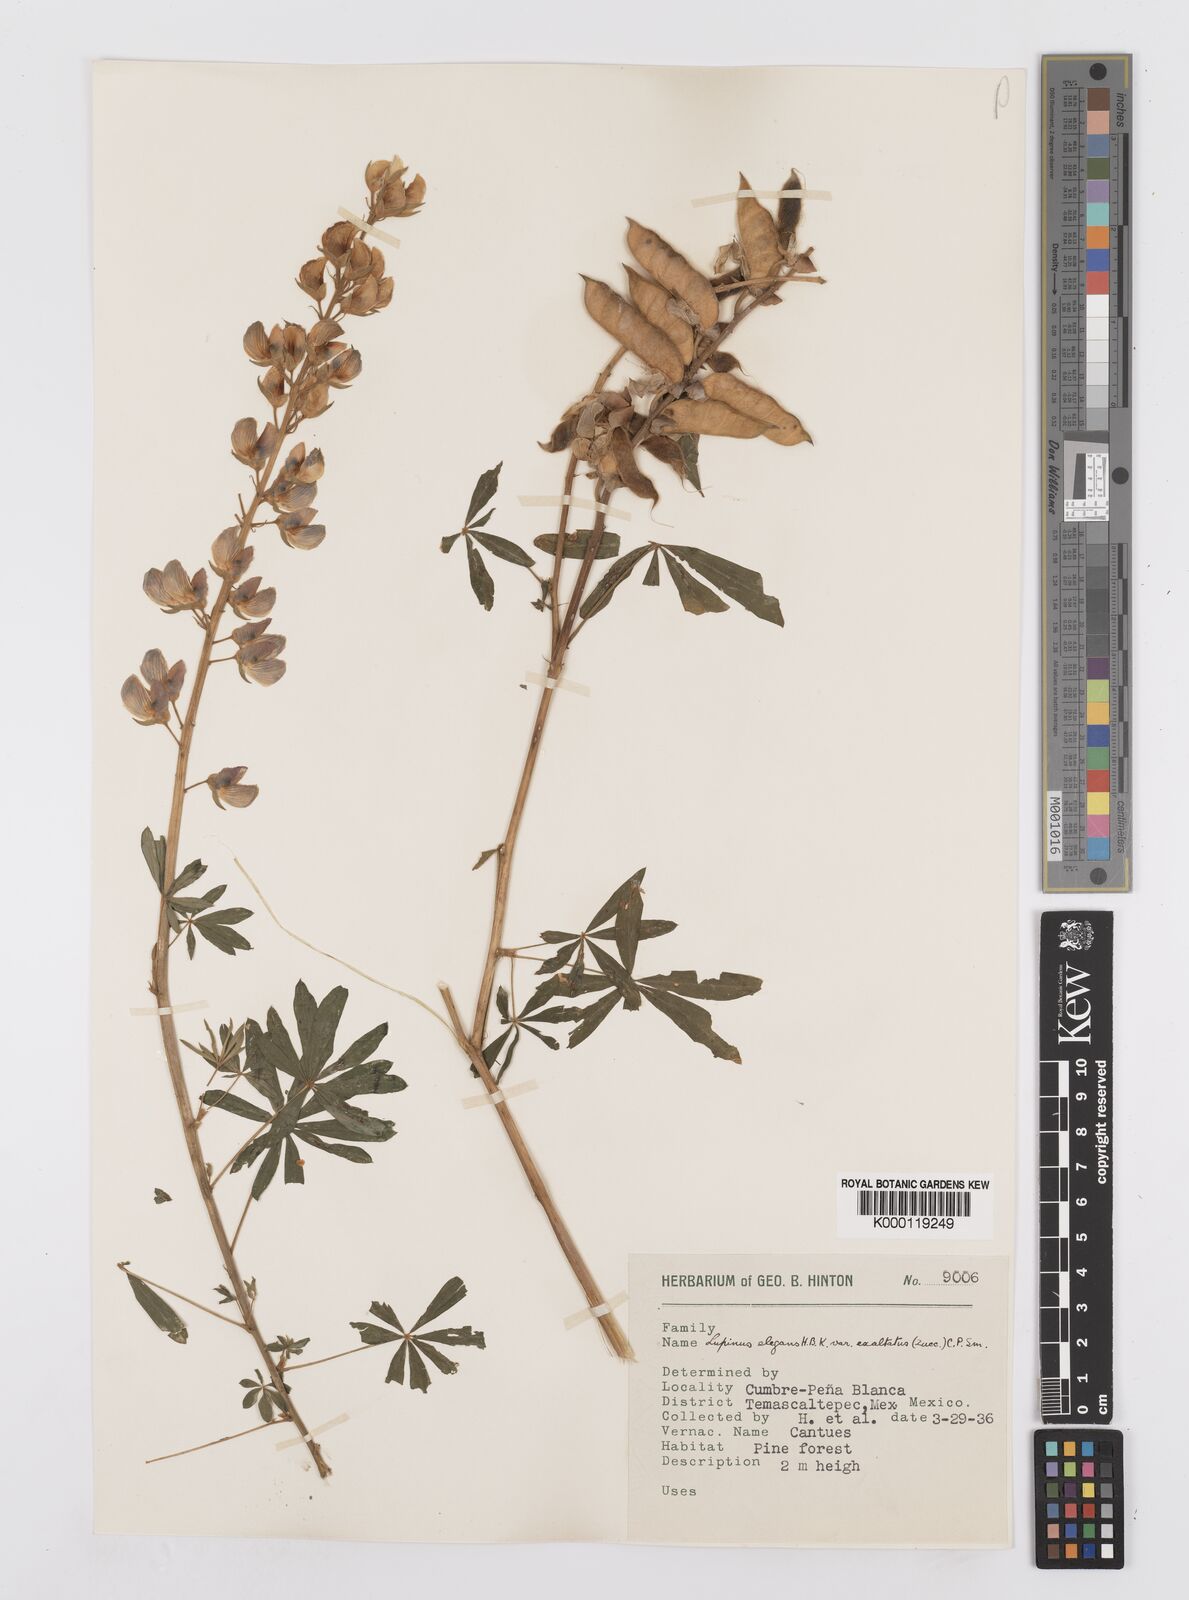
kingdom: Plantae
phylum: Tracheophyta
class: Magnoliopsida
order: Fabales
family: Fabaceae
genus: Lupinus
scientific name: Lupinus elegans
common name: Mexican lupine
